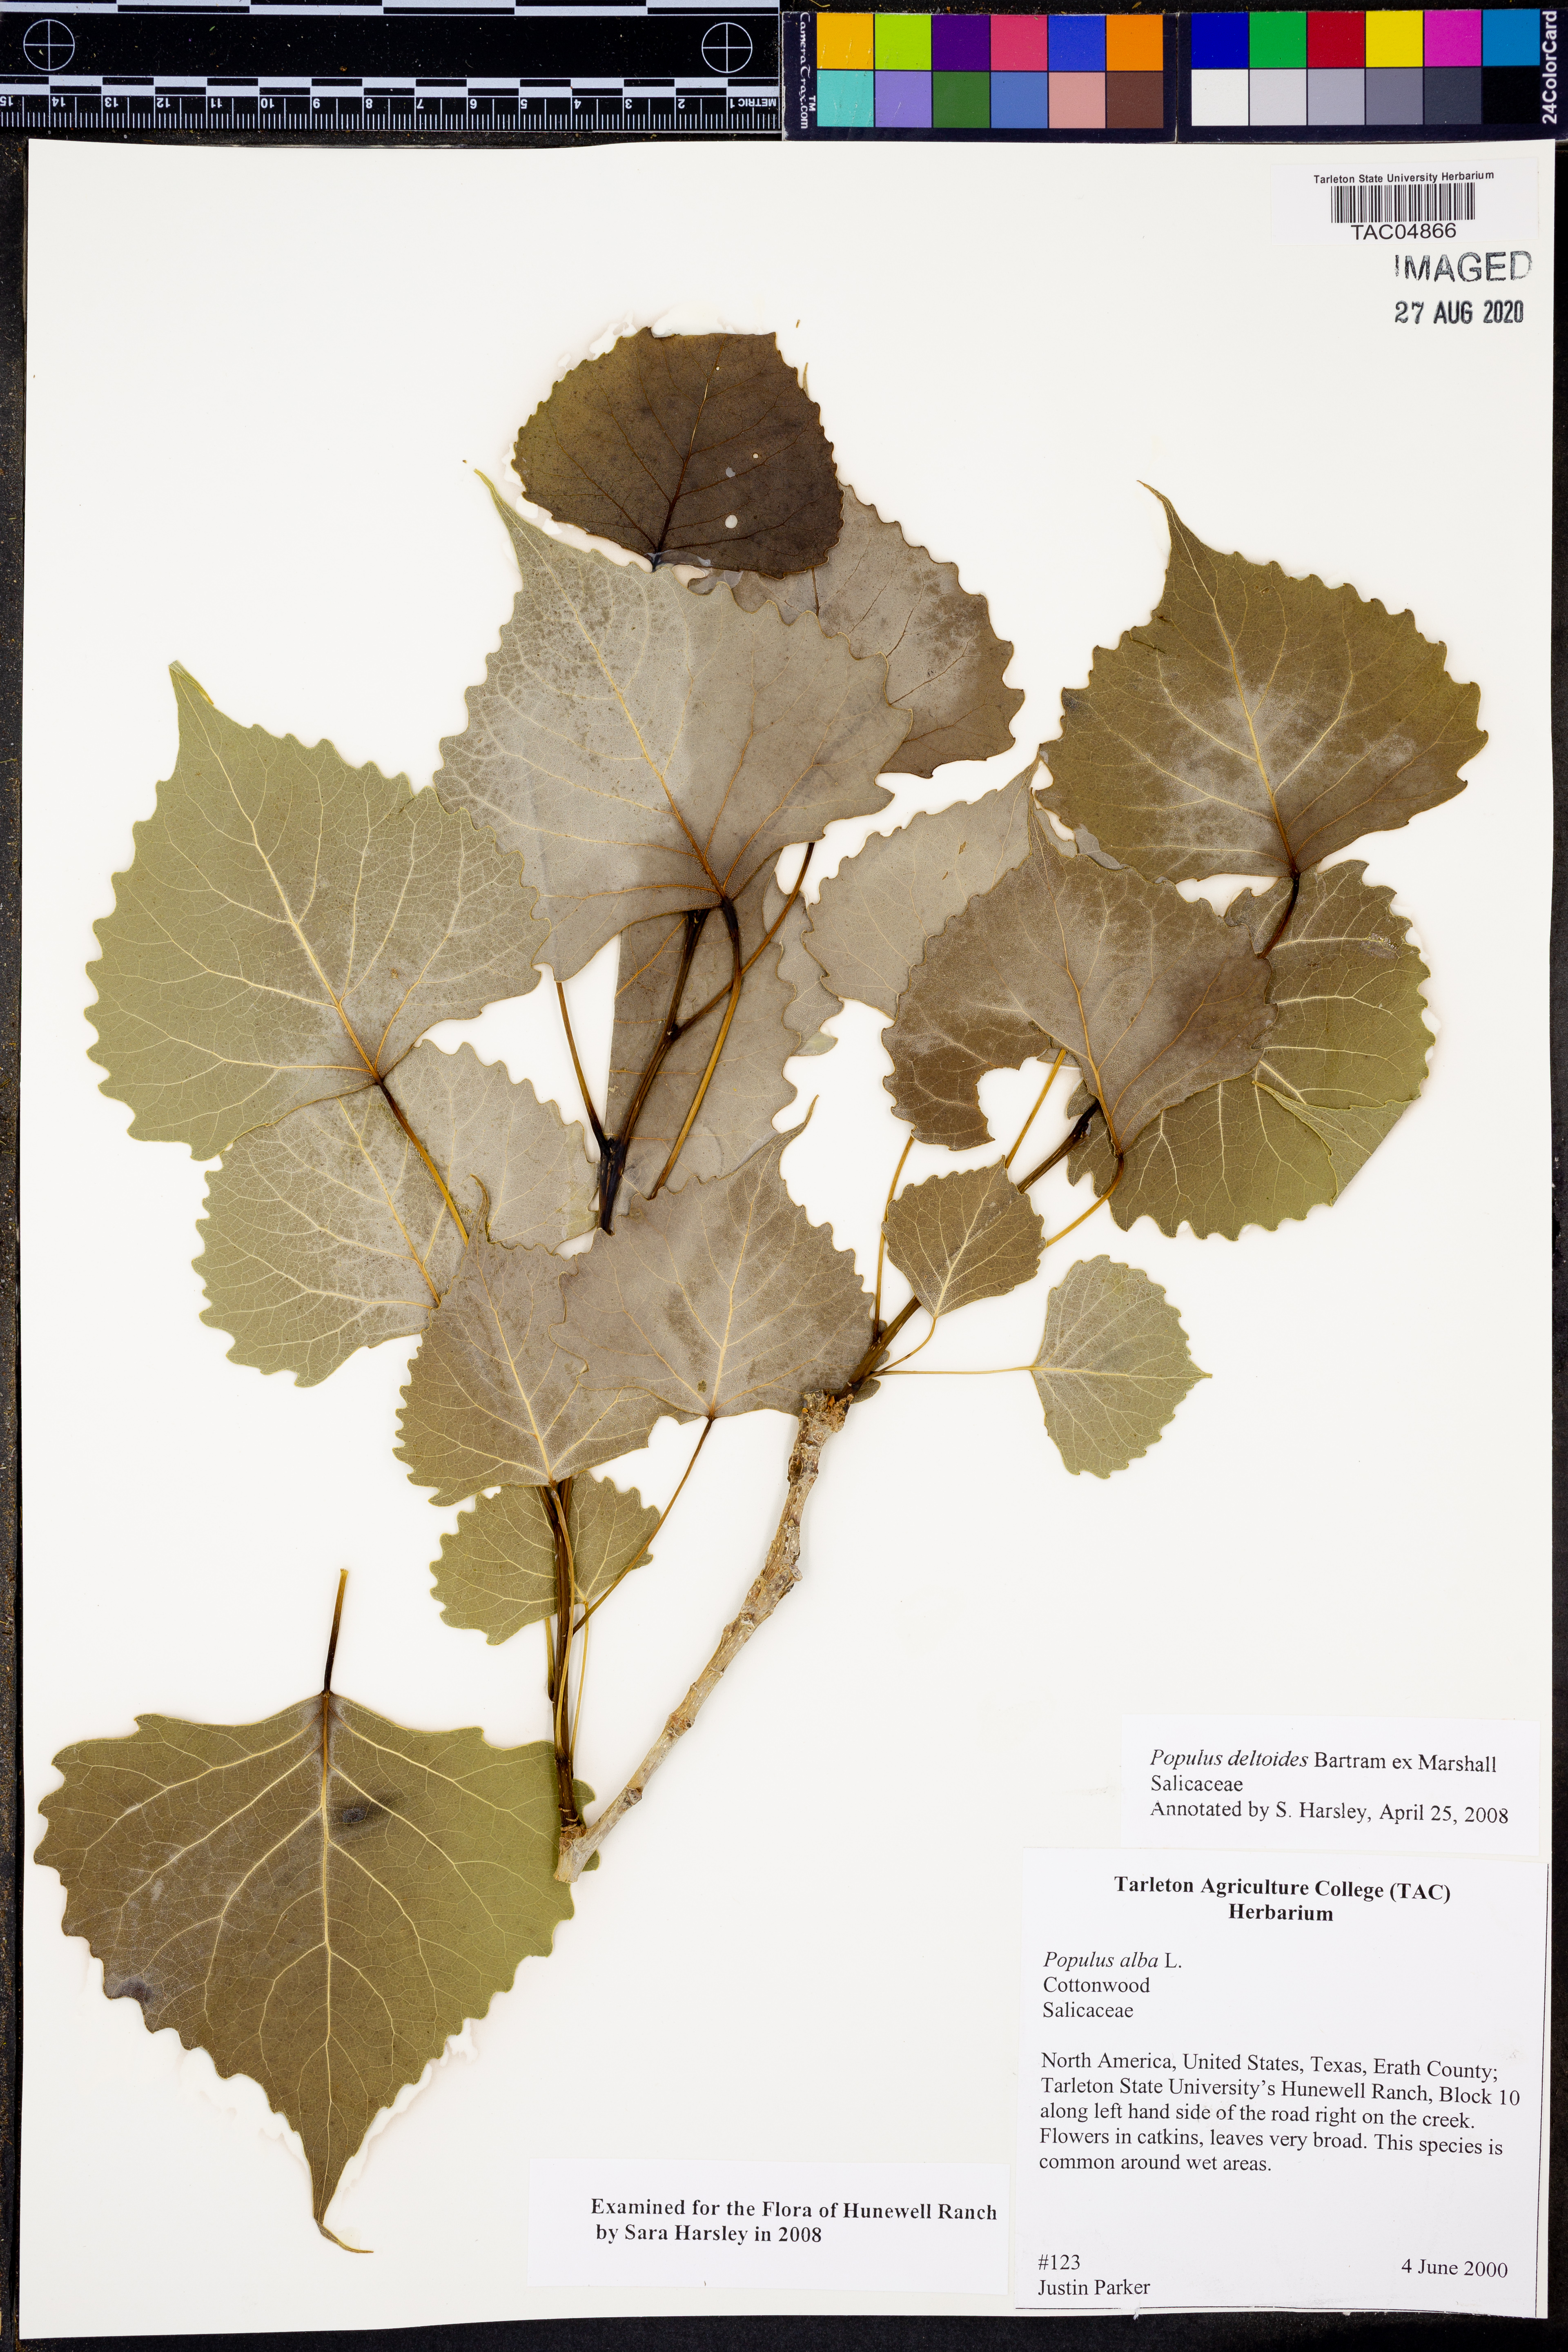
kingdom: Plantae
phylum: Tracheophyta
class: Magnoliopsida
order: Malpighiales
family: Salicaceae
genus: Populus
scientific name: Populus deltoides
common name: Eastern cottonwood
